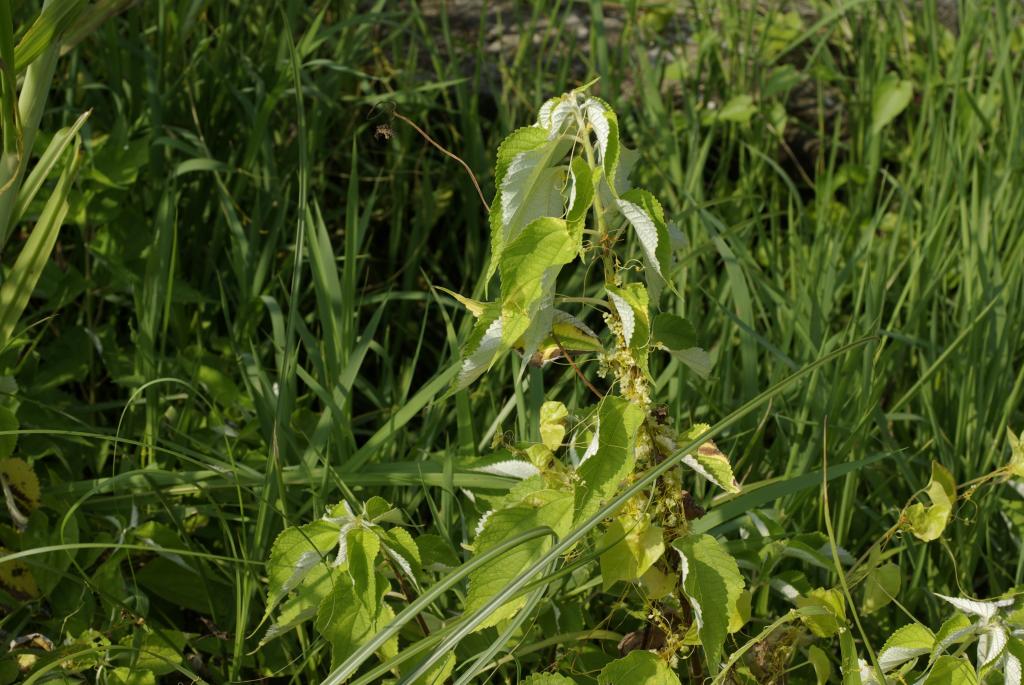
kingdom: Plantae
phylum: Tracheophyta
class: Magnoliopsida
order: Rosales
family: Urticaceae
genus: Boehmeria
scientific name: Boehmeria nivea
